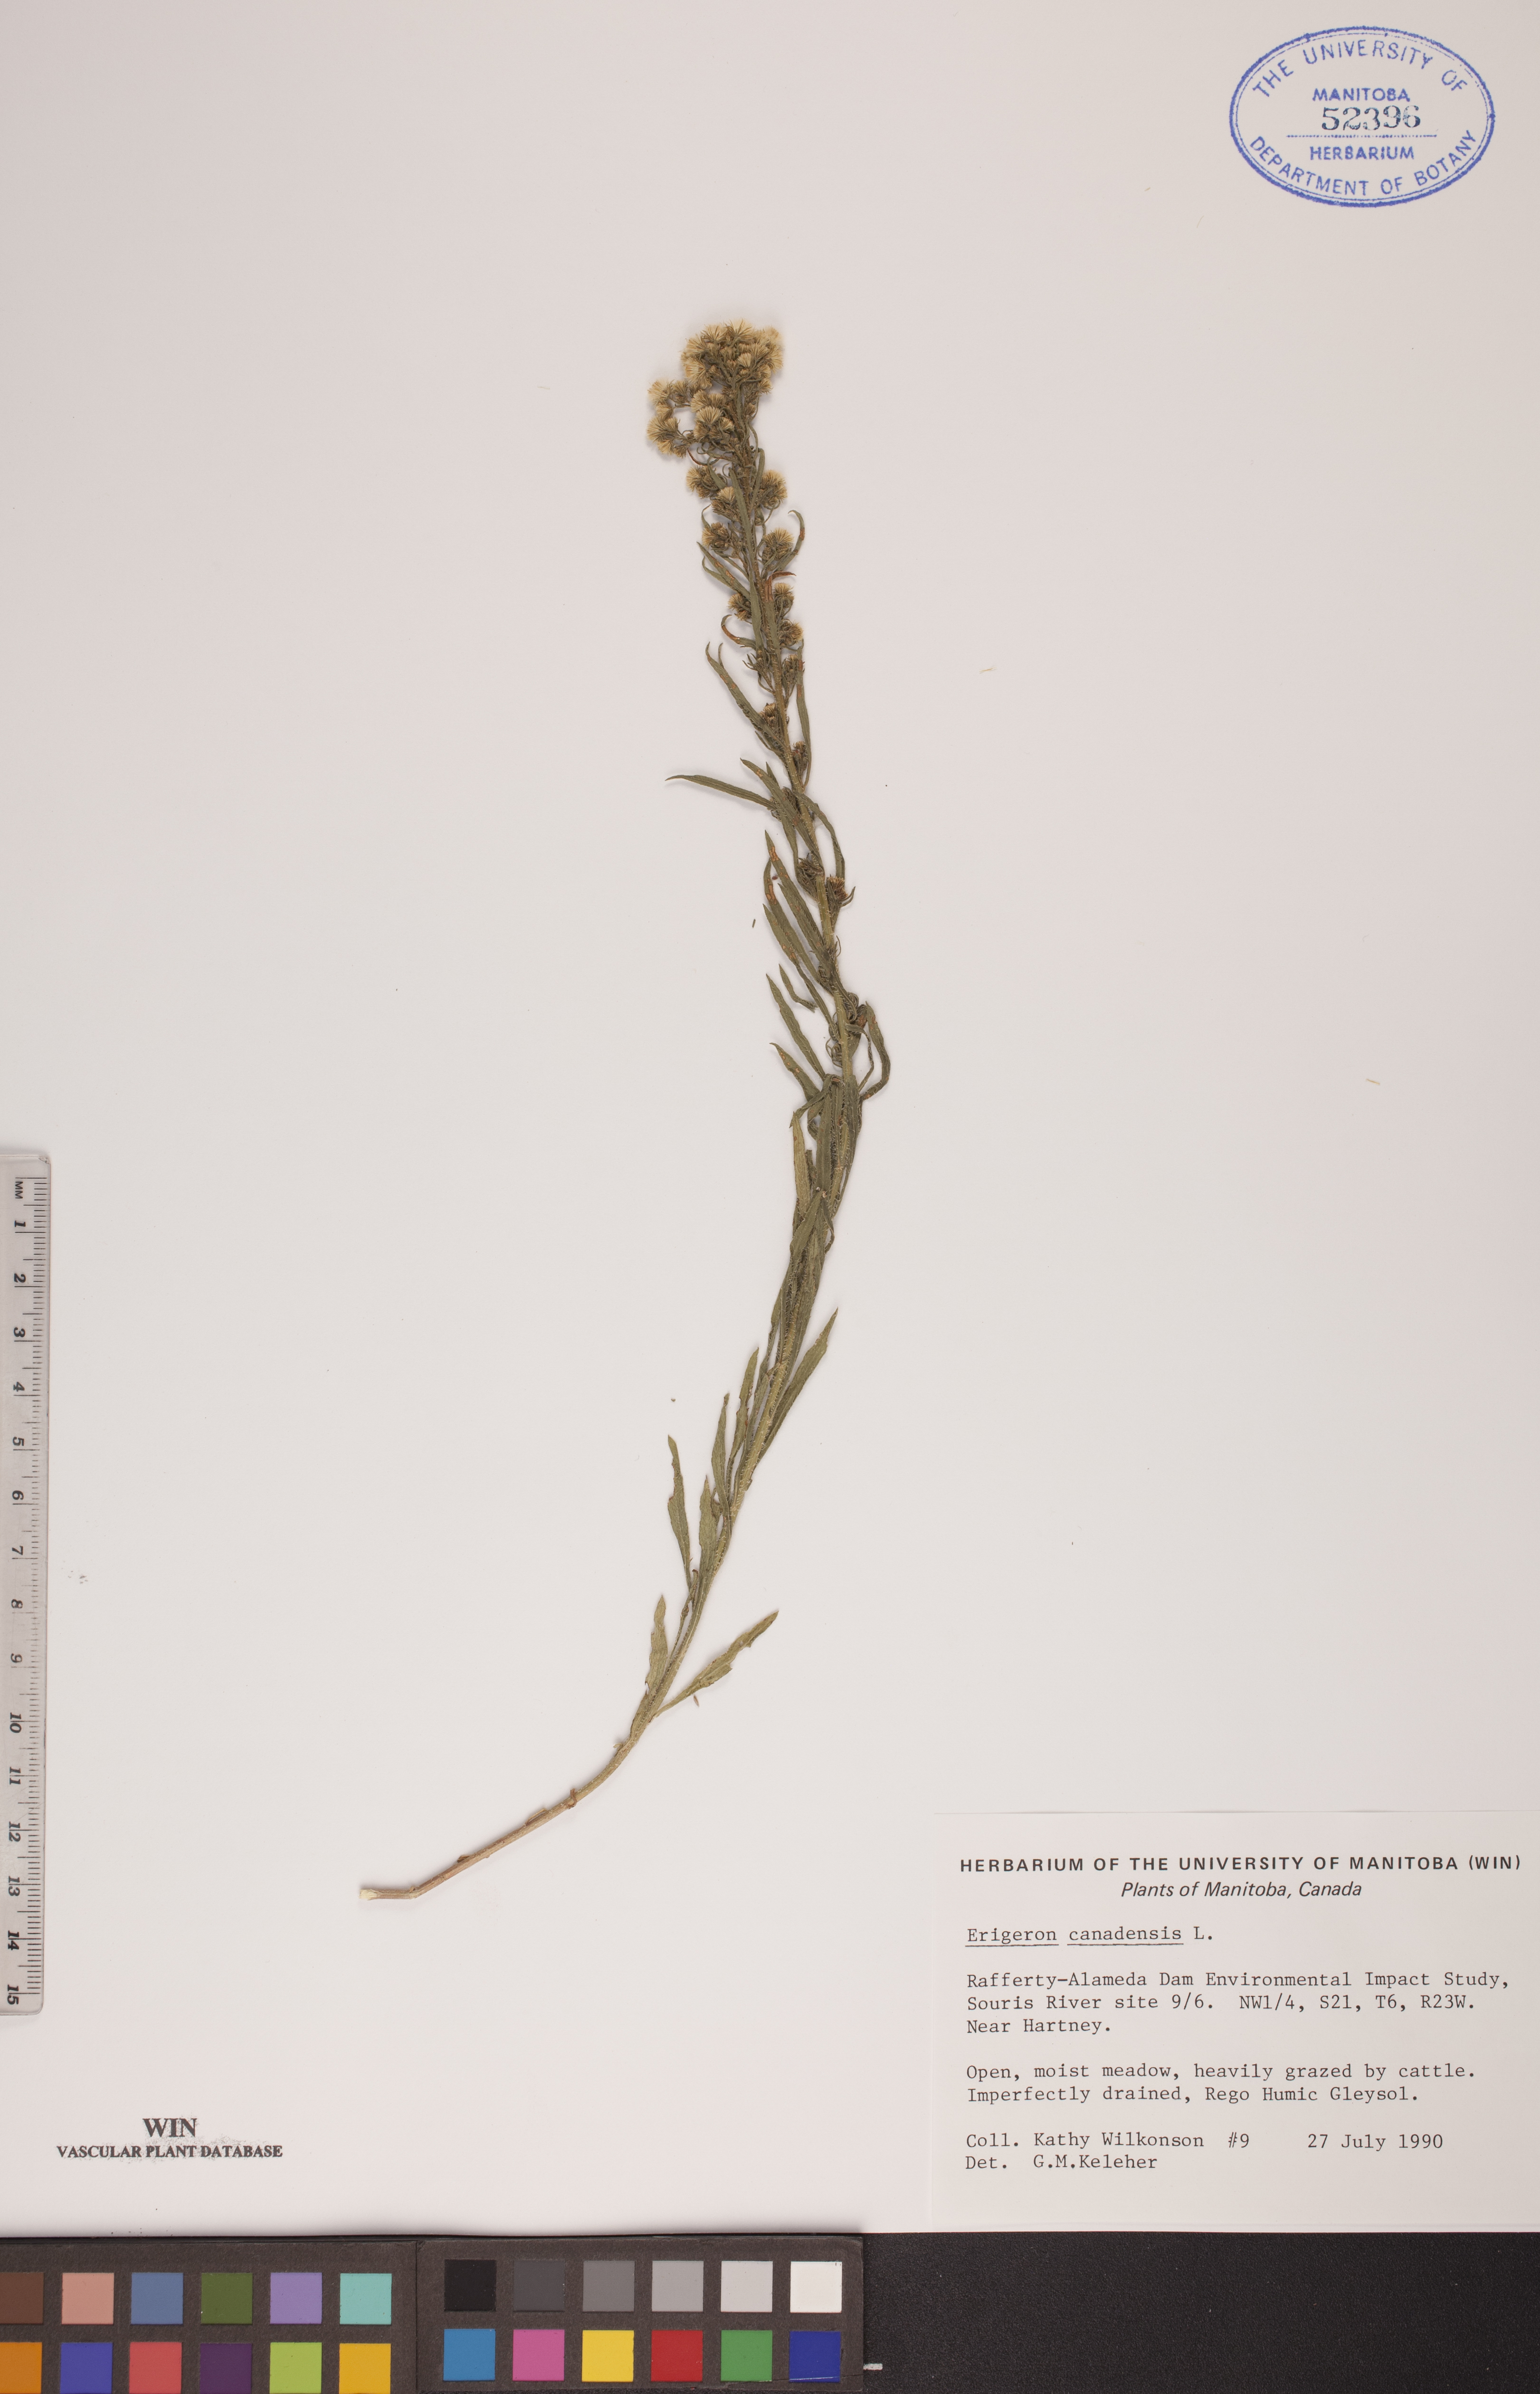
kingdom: Plantae
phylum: Tracheophyta
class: Magnoliopsida
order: Asterales
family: Asteraceae
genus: Erigeron
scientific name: Erigeron canadensis
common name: Canadian fleabane
